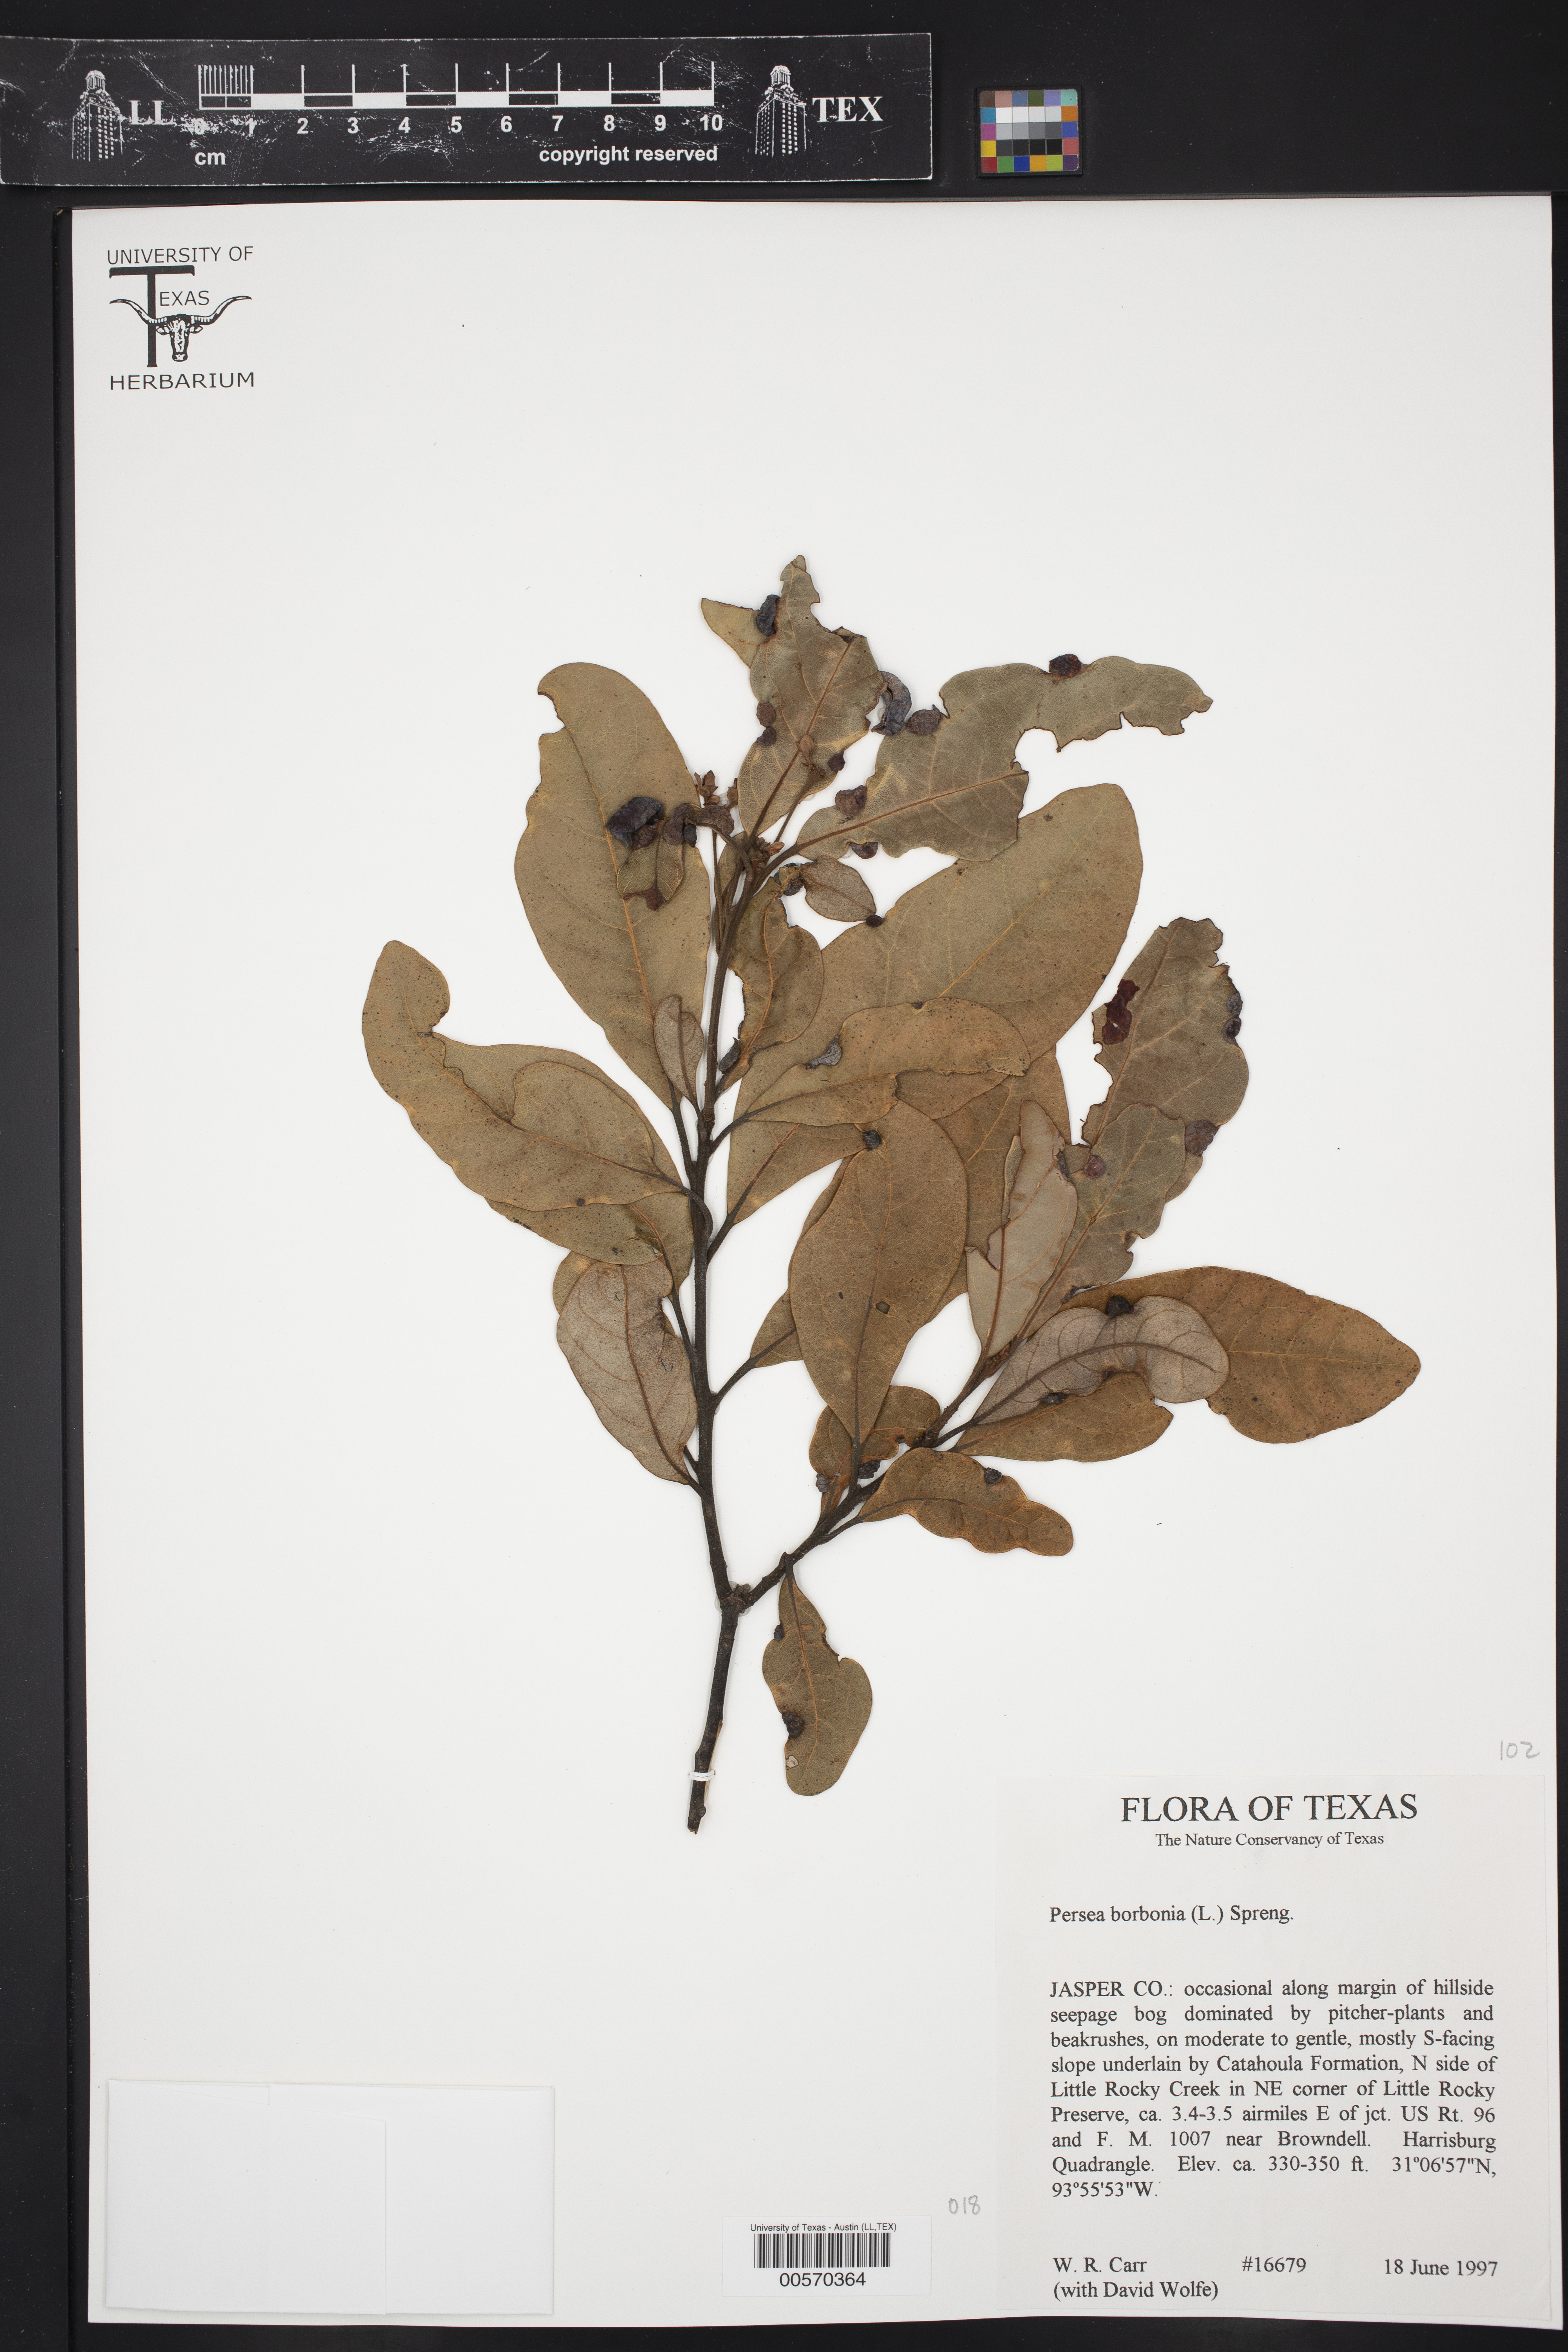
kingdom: Plantae
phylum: Tracheophyta
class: Magnoliopsida
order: Laurales
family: Lauraceae
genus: Persea
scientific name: Persea borbonia
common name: Redbay
